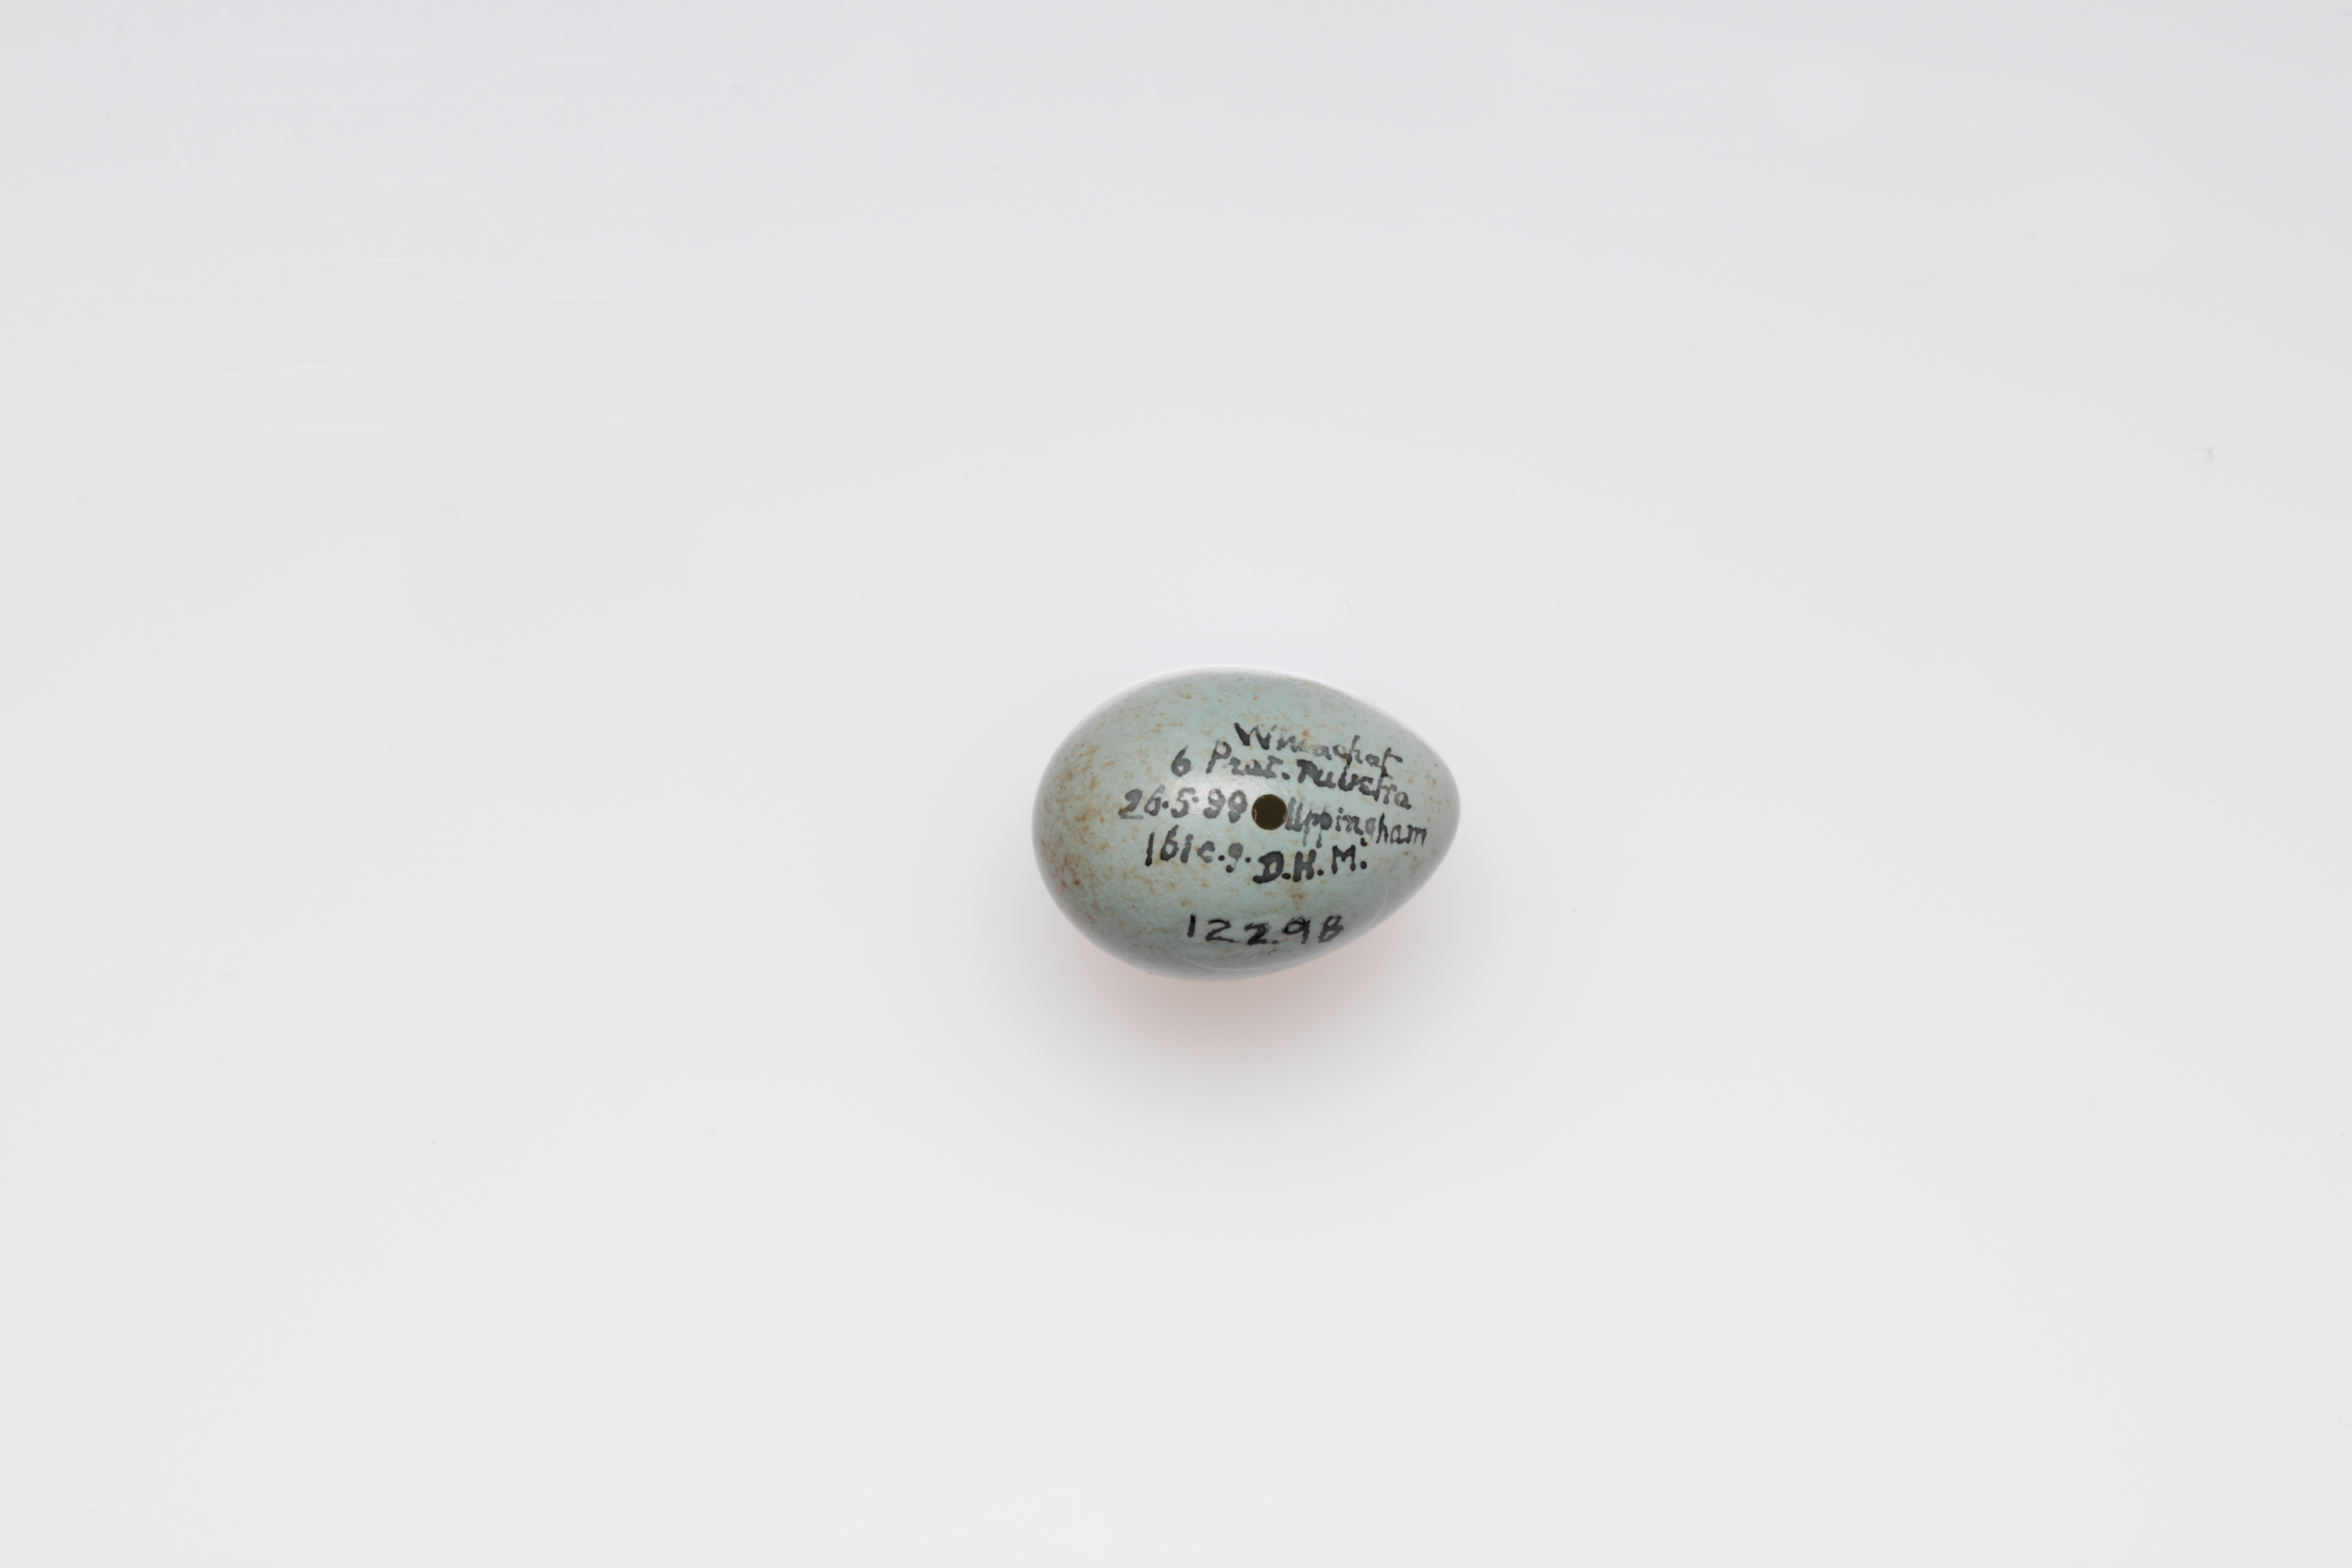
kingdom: Animalia
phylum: Chordata
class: Aves
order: Passeriformes
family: Muscicapidae
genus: Saxicola
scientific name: Saxicola rubetra
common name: Whinchat
